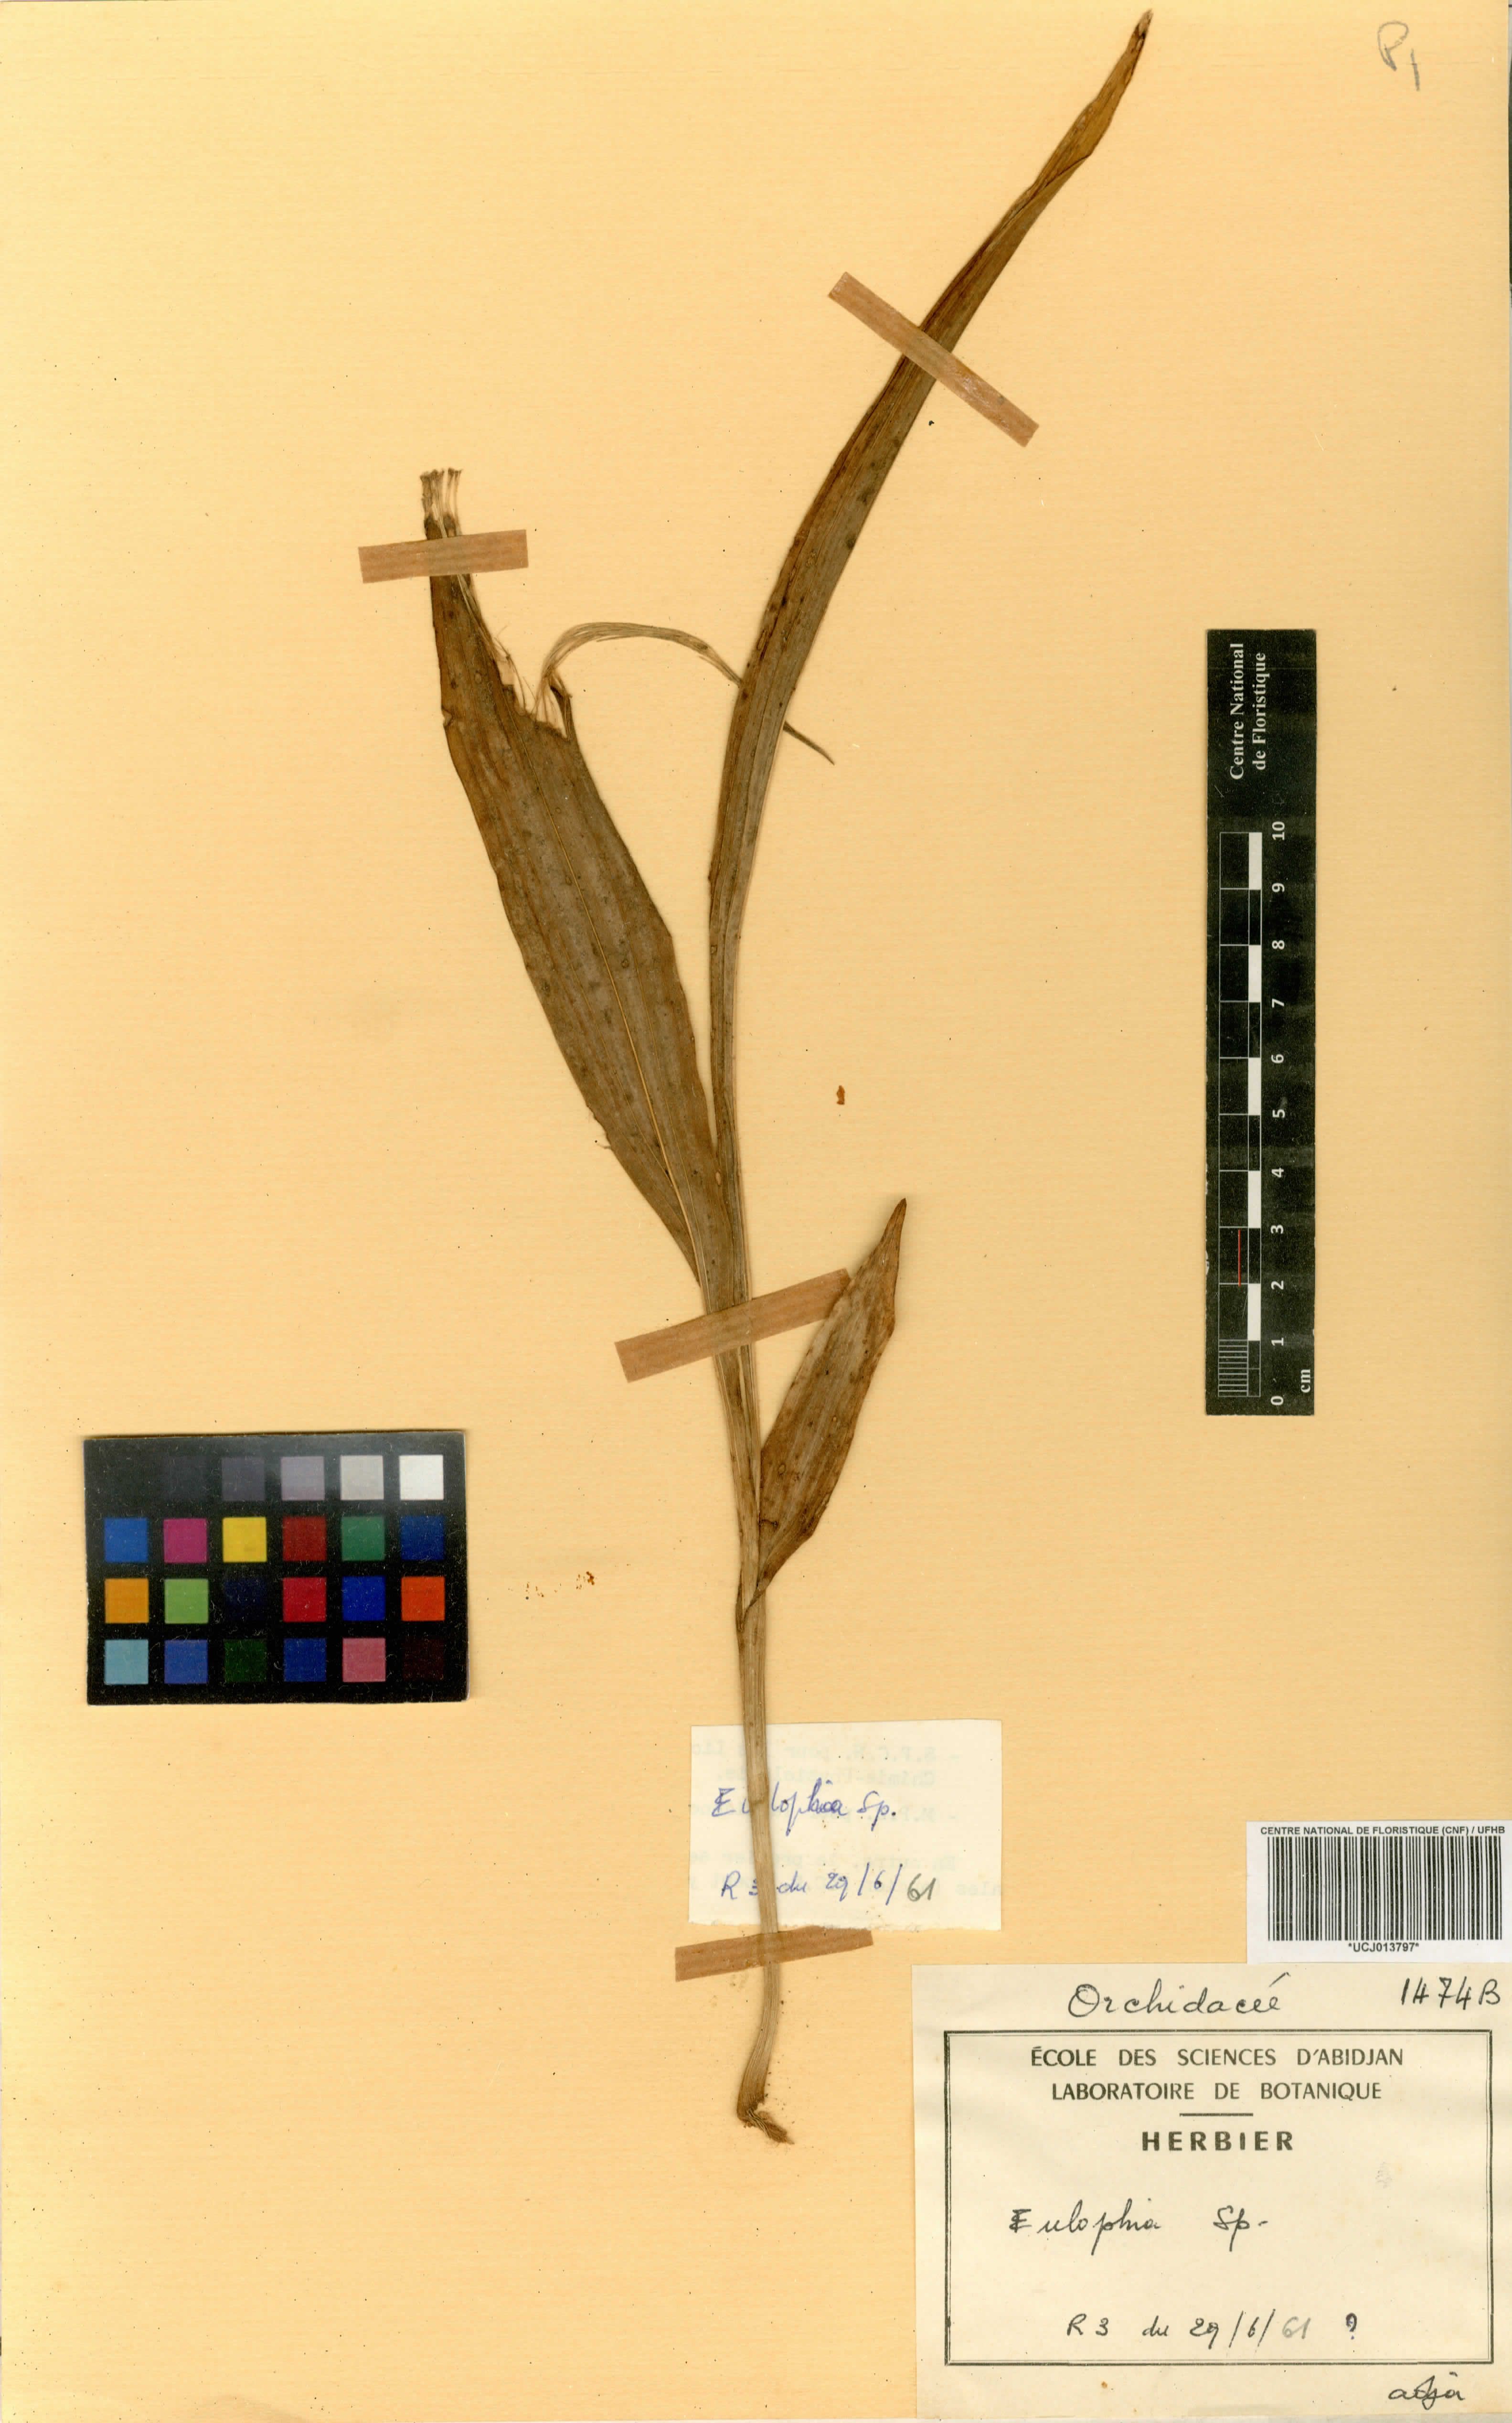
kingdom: Plantae
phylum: Tracheophyta
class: Liliopsida
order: Asparagales
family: Orchidaceae
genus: Eulophia
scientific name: Eulophia
